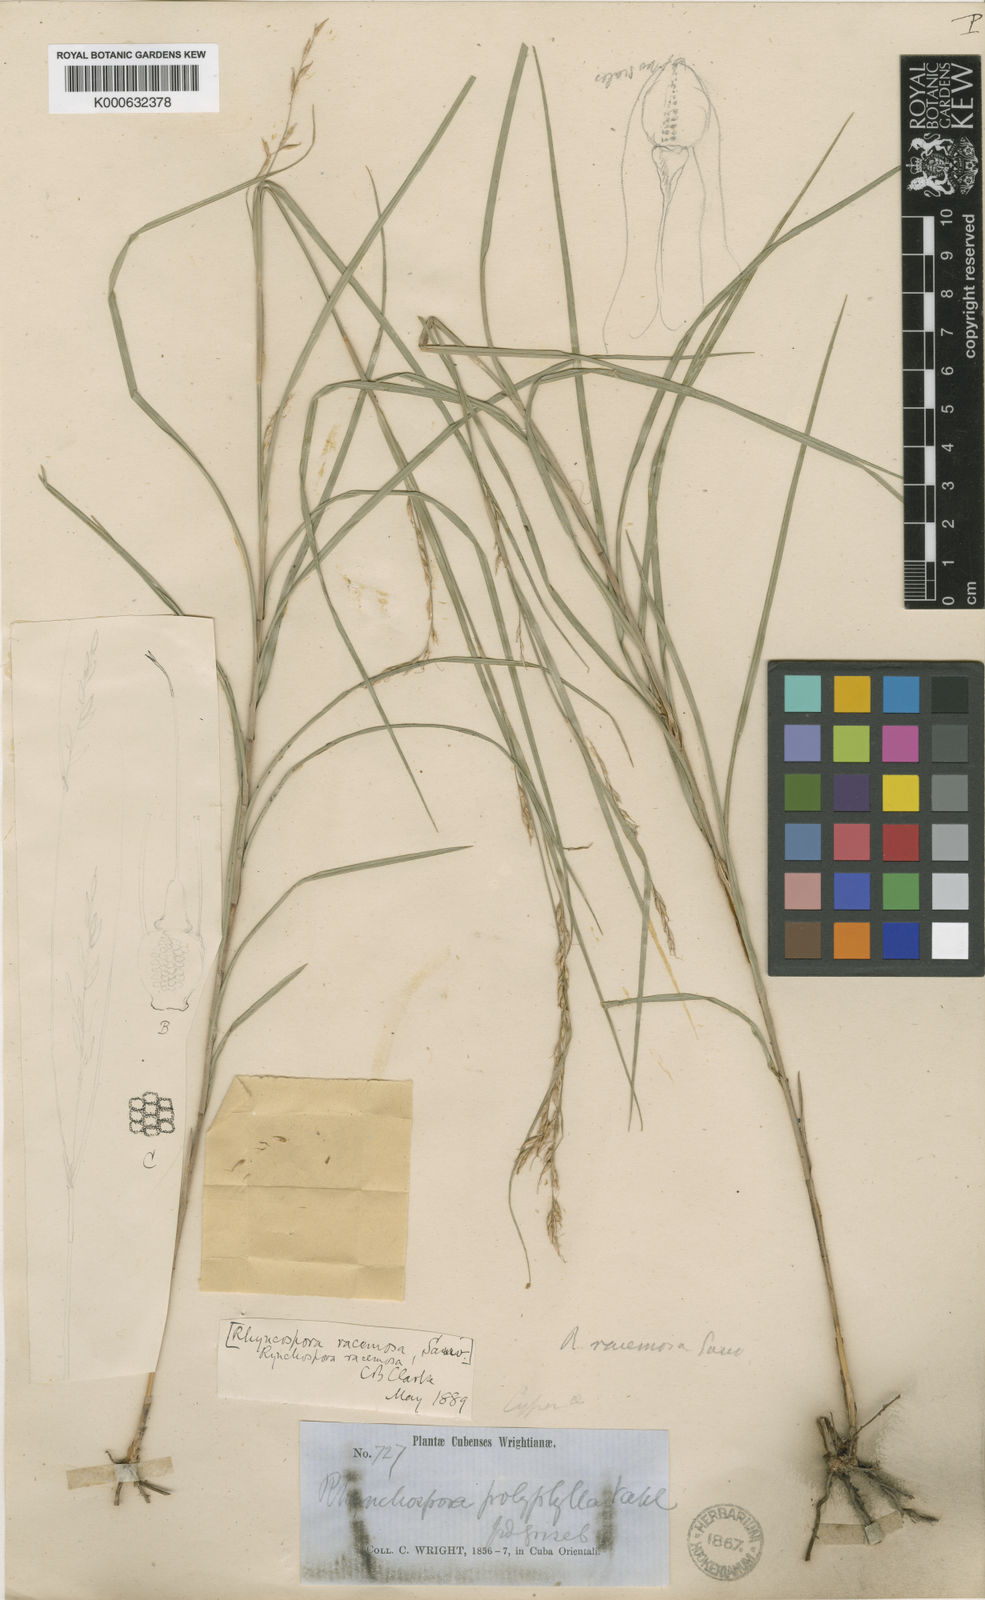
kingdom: Plantae
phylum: Tracheophyta
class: Liliopsida
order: Poales
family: Cyperaceae
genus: Rhynchospora
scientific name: Rhynchospora
